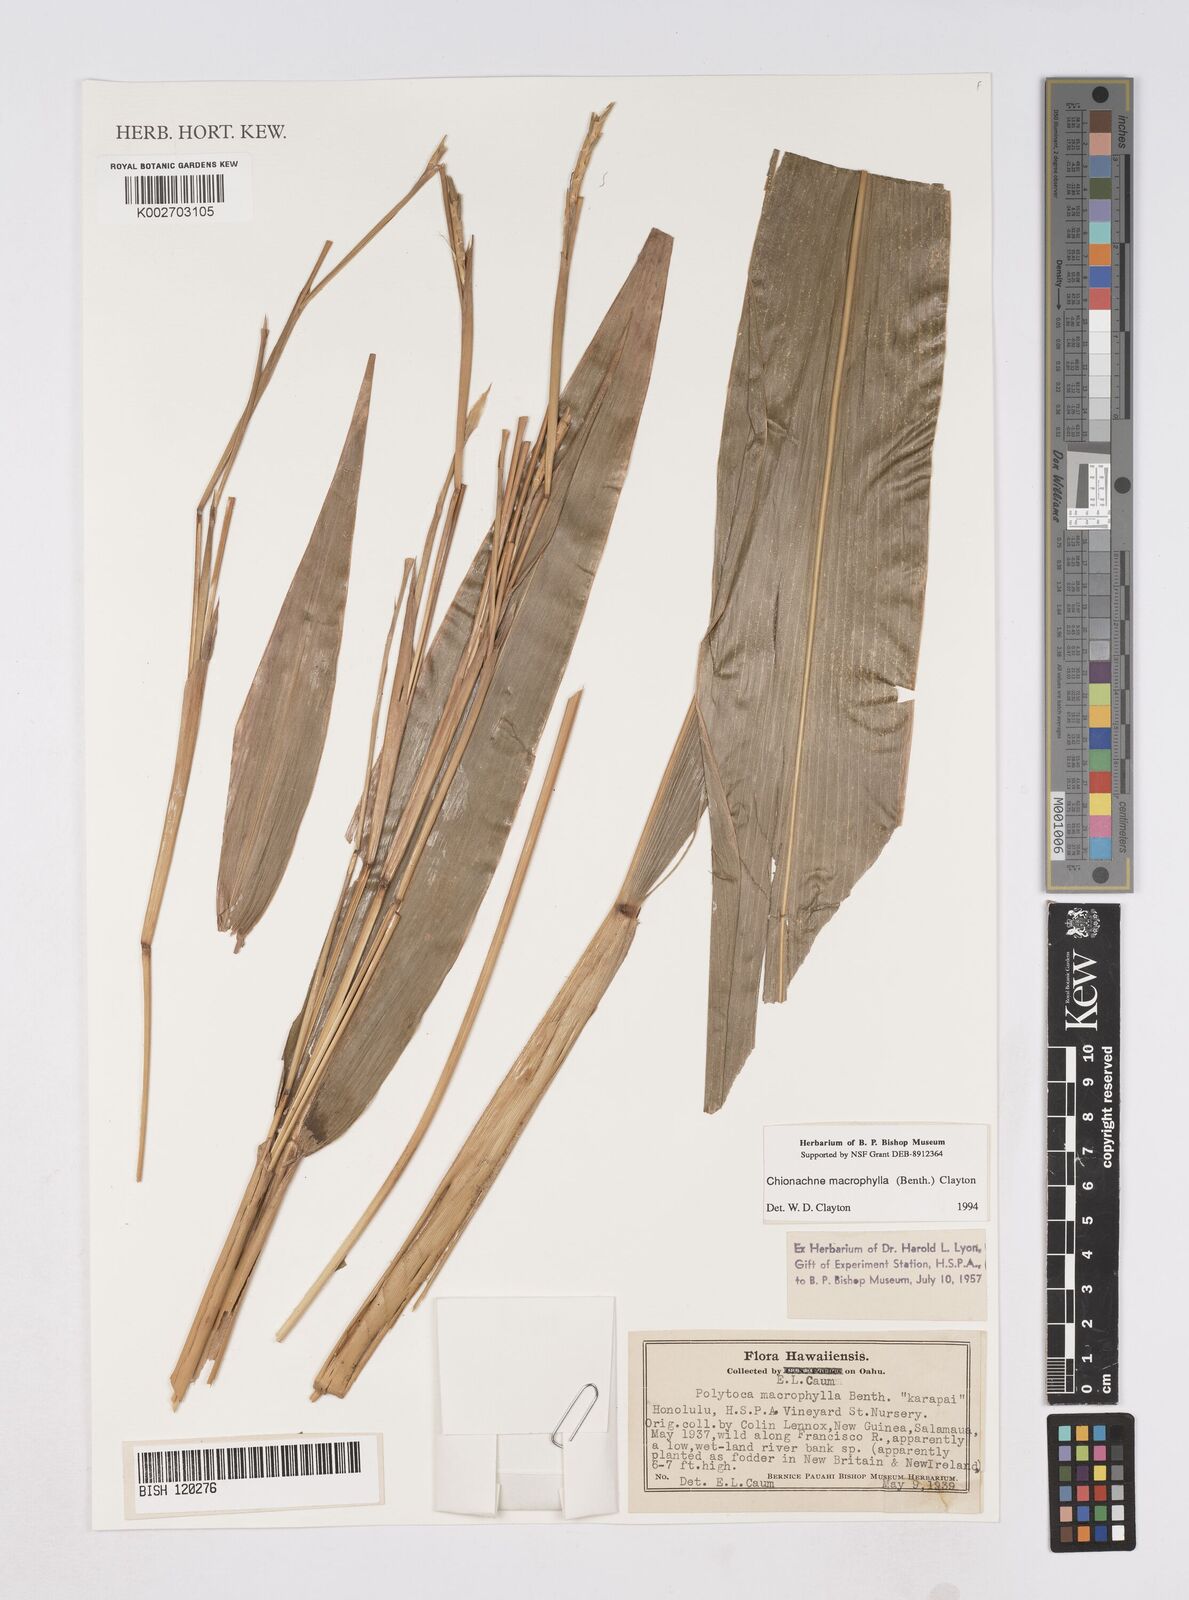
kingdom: Plantae
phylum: Tracheophyta
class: Liliopsida
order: Poales
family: Poaceae
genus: Polytoca
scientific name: Polytoca macrophylla
